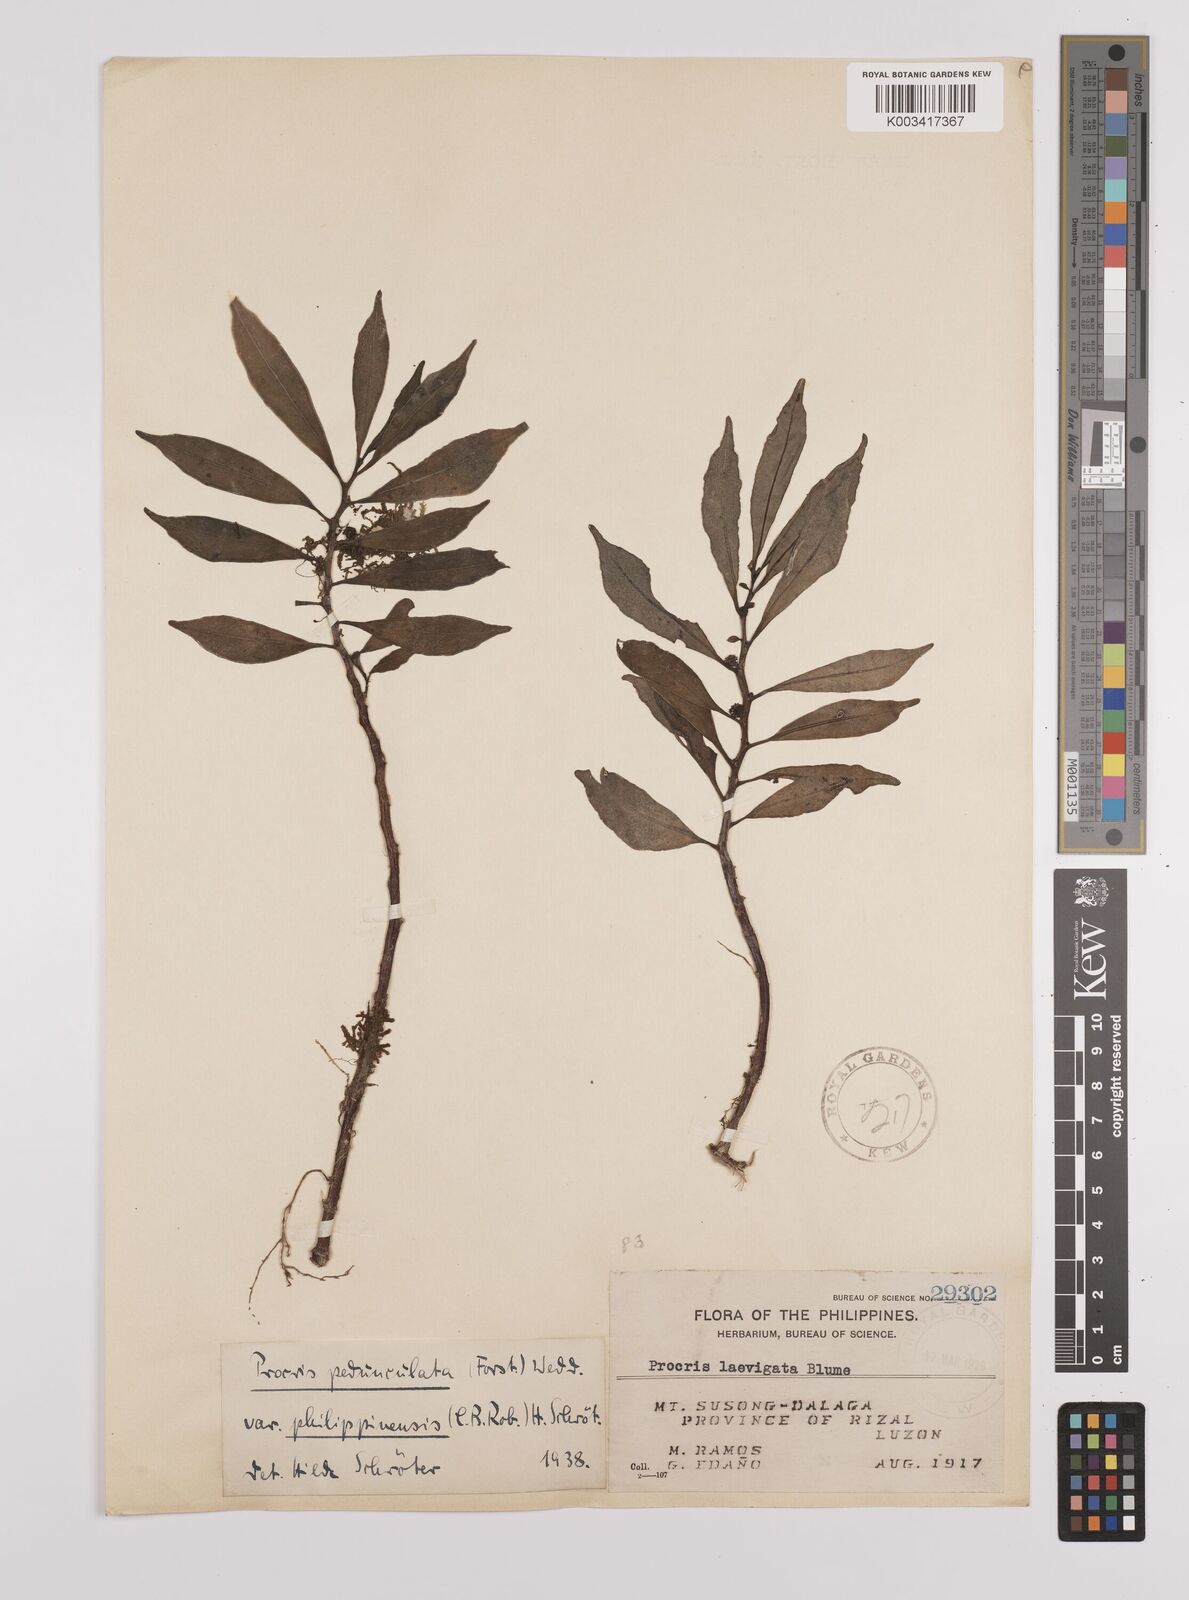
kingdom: Plantae
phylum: Tracheophyta
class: Magnoliopsida
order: Rosales
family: Urticaceae
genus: Procris
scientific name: Procris pedunculata
